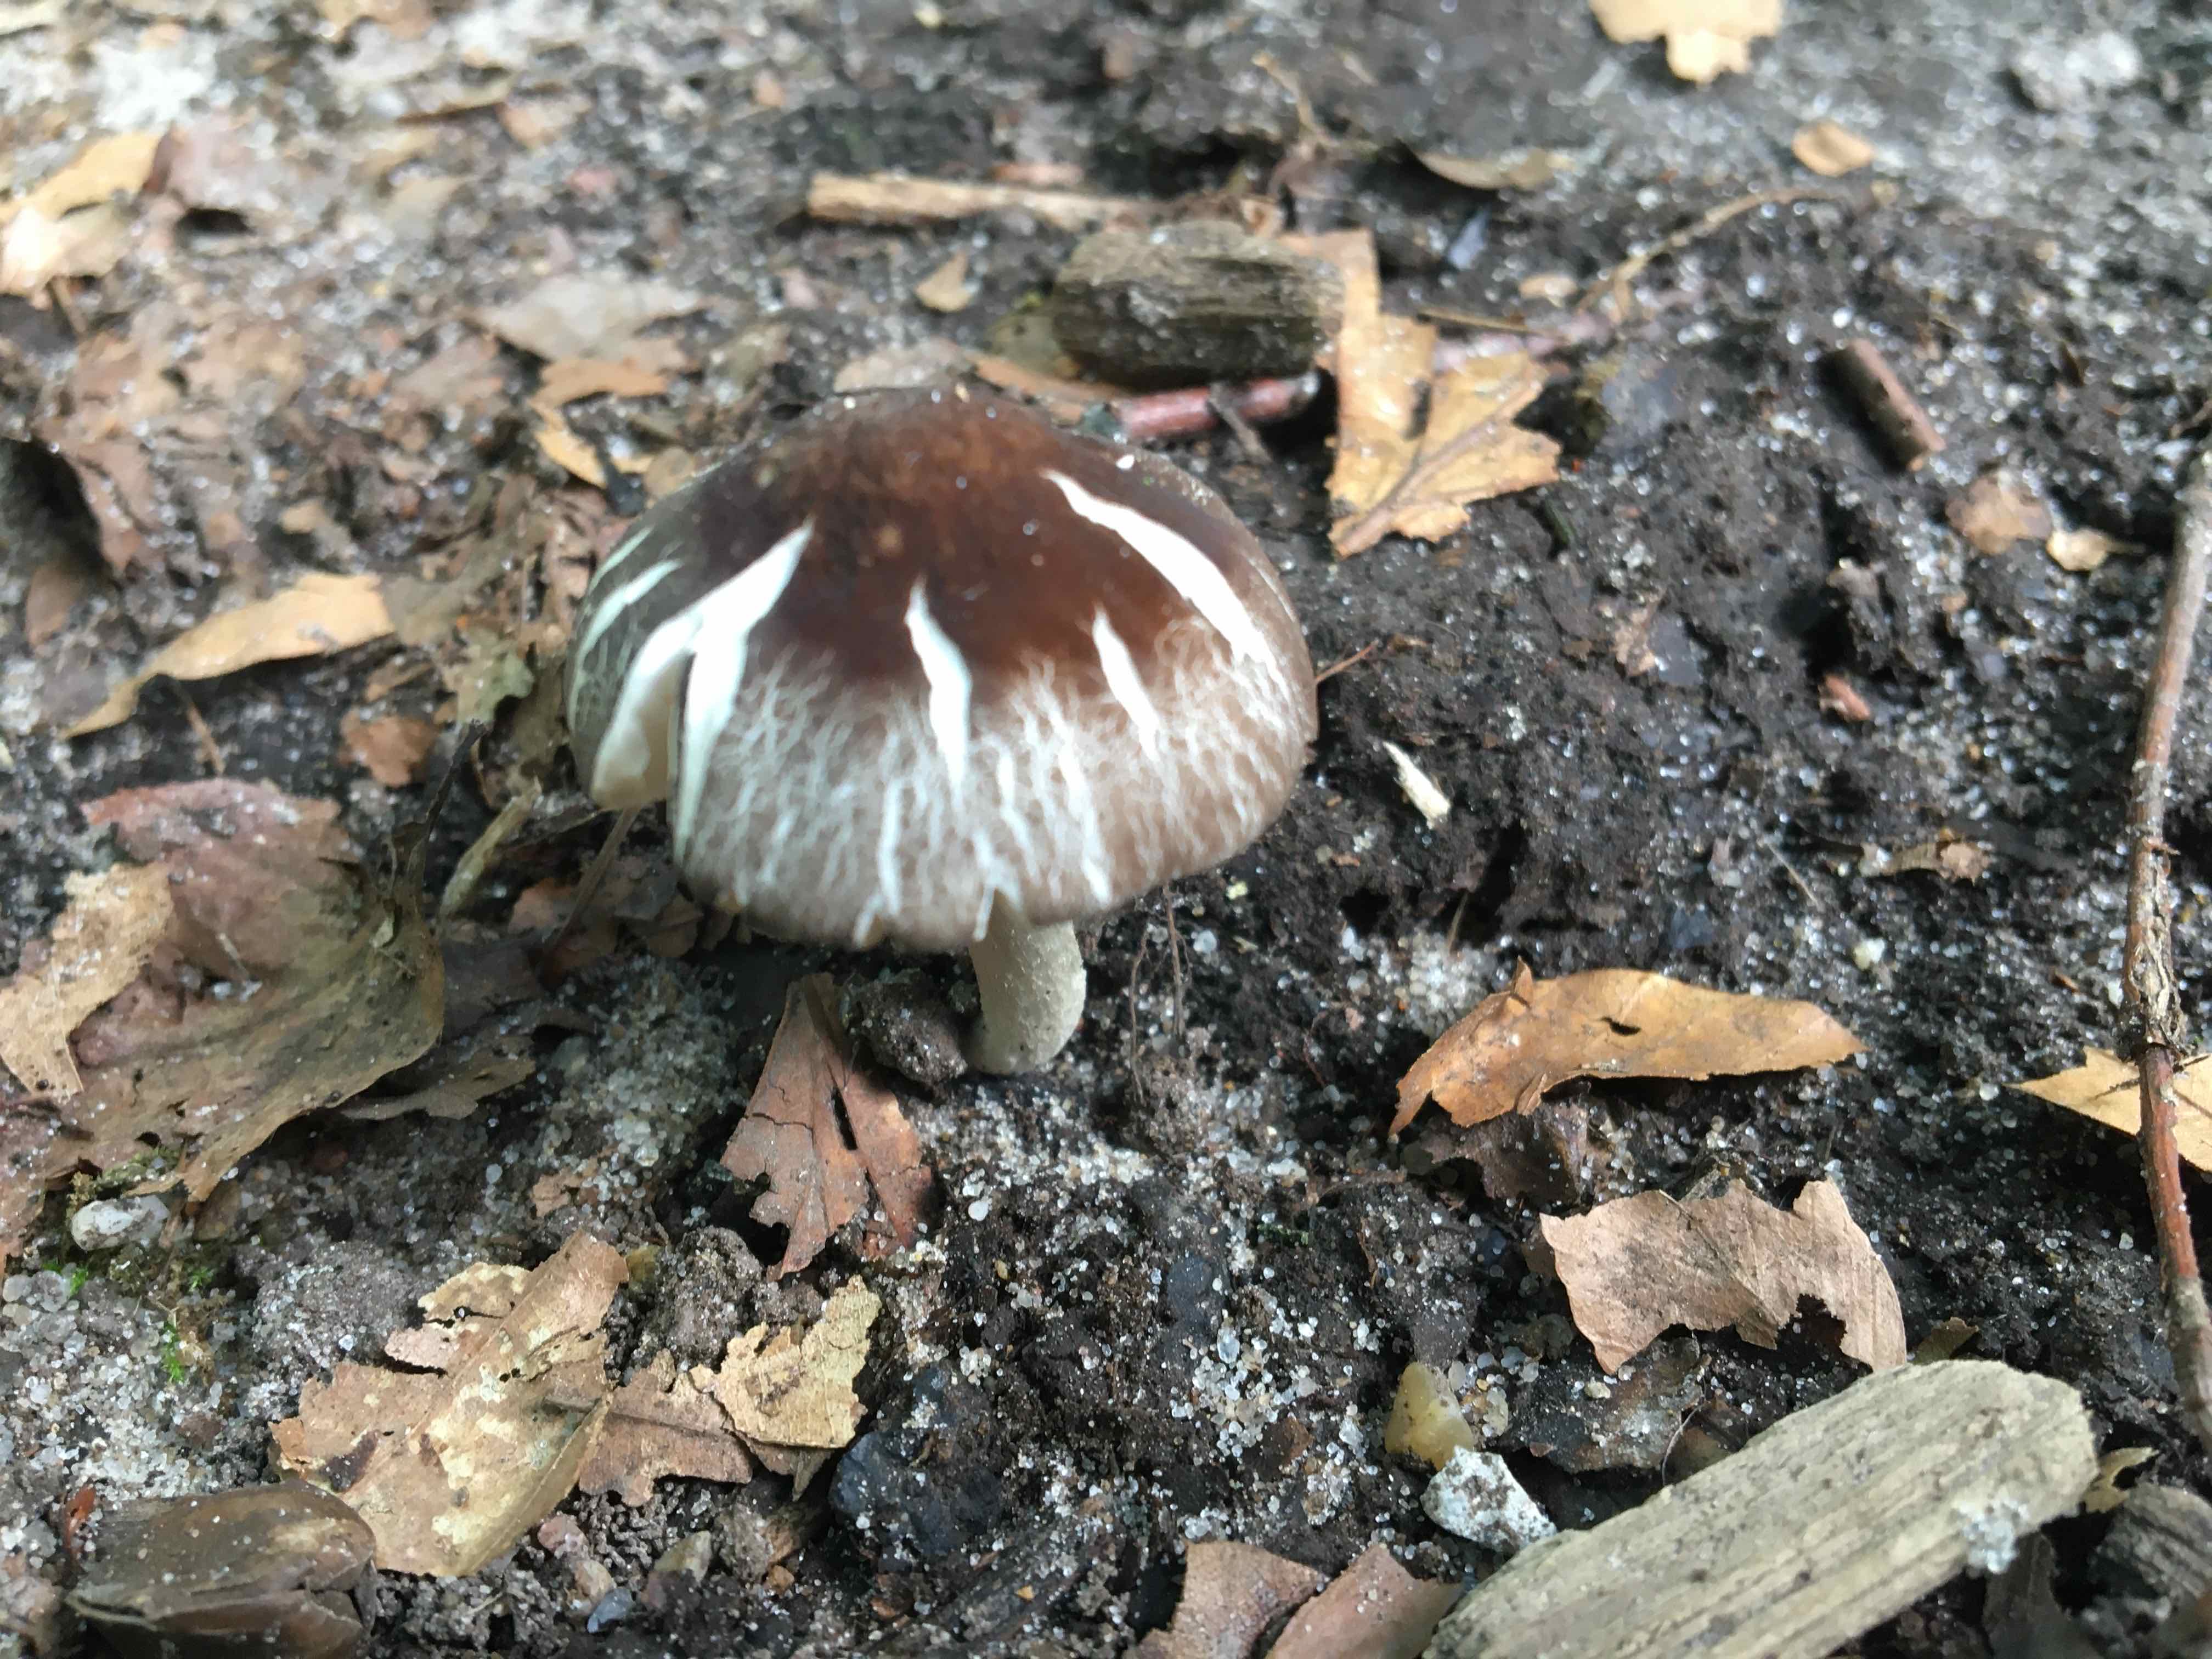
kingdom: Fungi
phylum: Basidiomycota
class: Agaricomycetes
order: Agaricales
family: Pluteaceae
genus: Pluteus
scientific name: Pluteus
